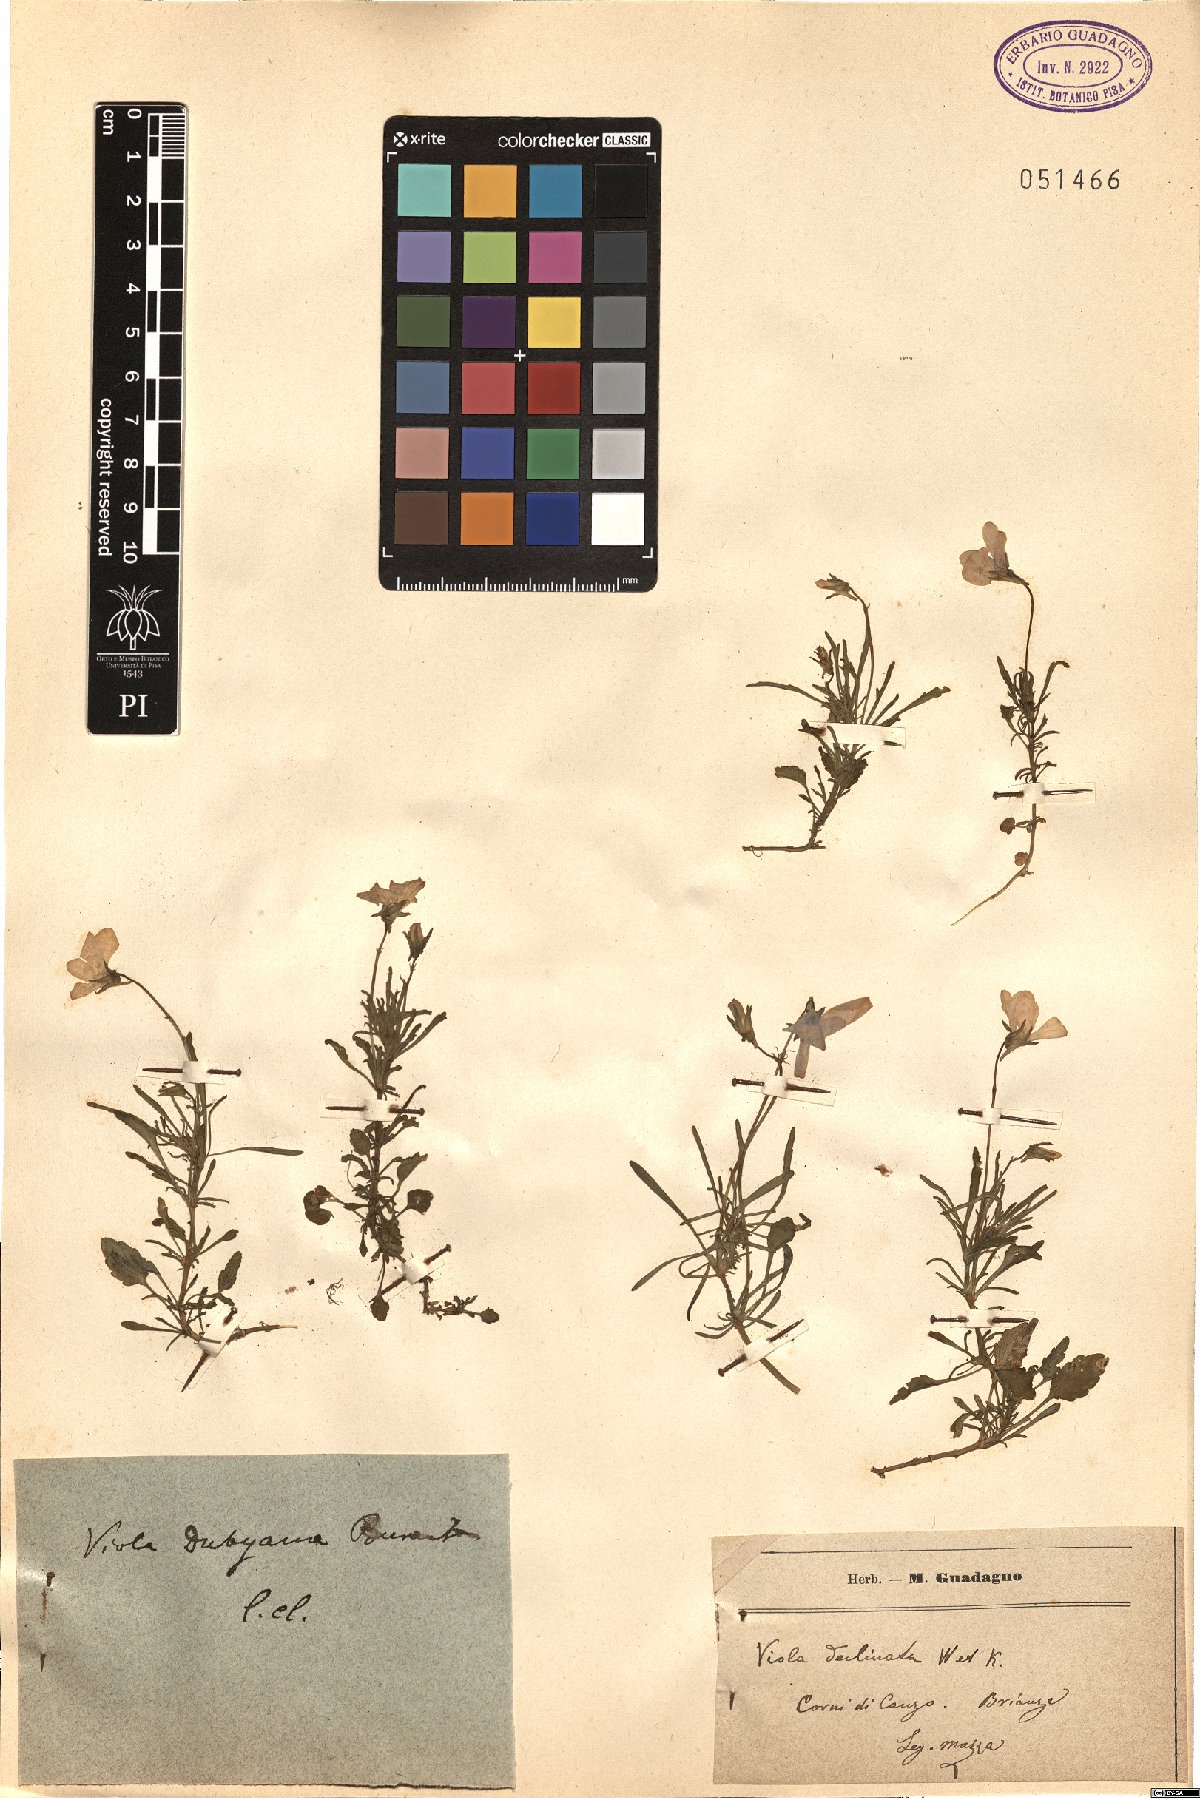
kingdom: Plantae
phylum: Tracheophyta
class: Magnoliopsida
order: Malpighiales
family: Violaceae
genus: Viola
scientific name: Viola dubyana
